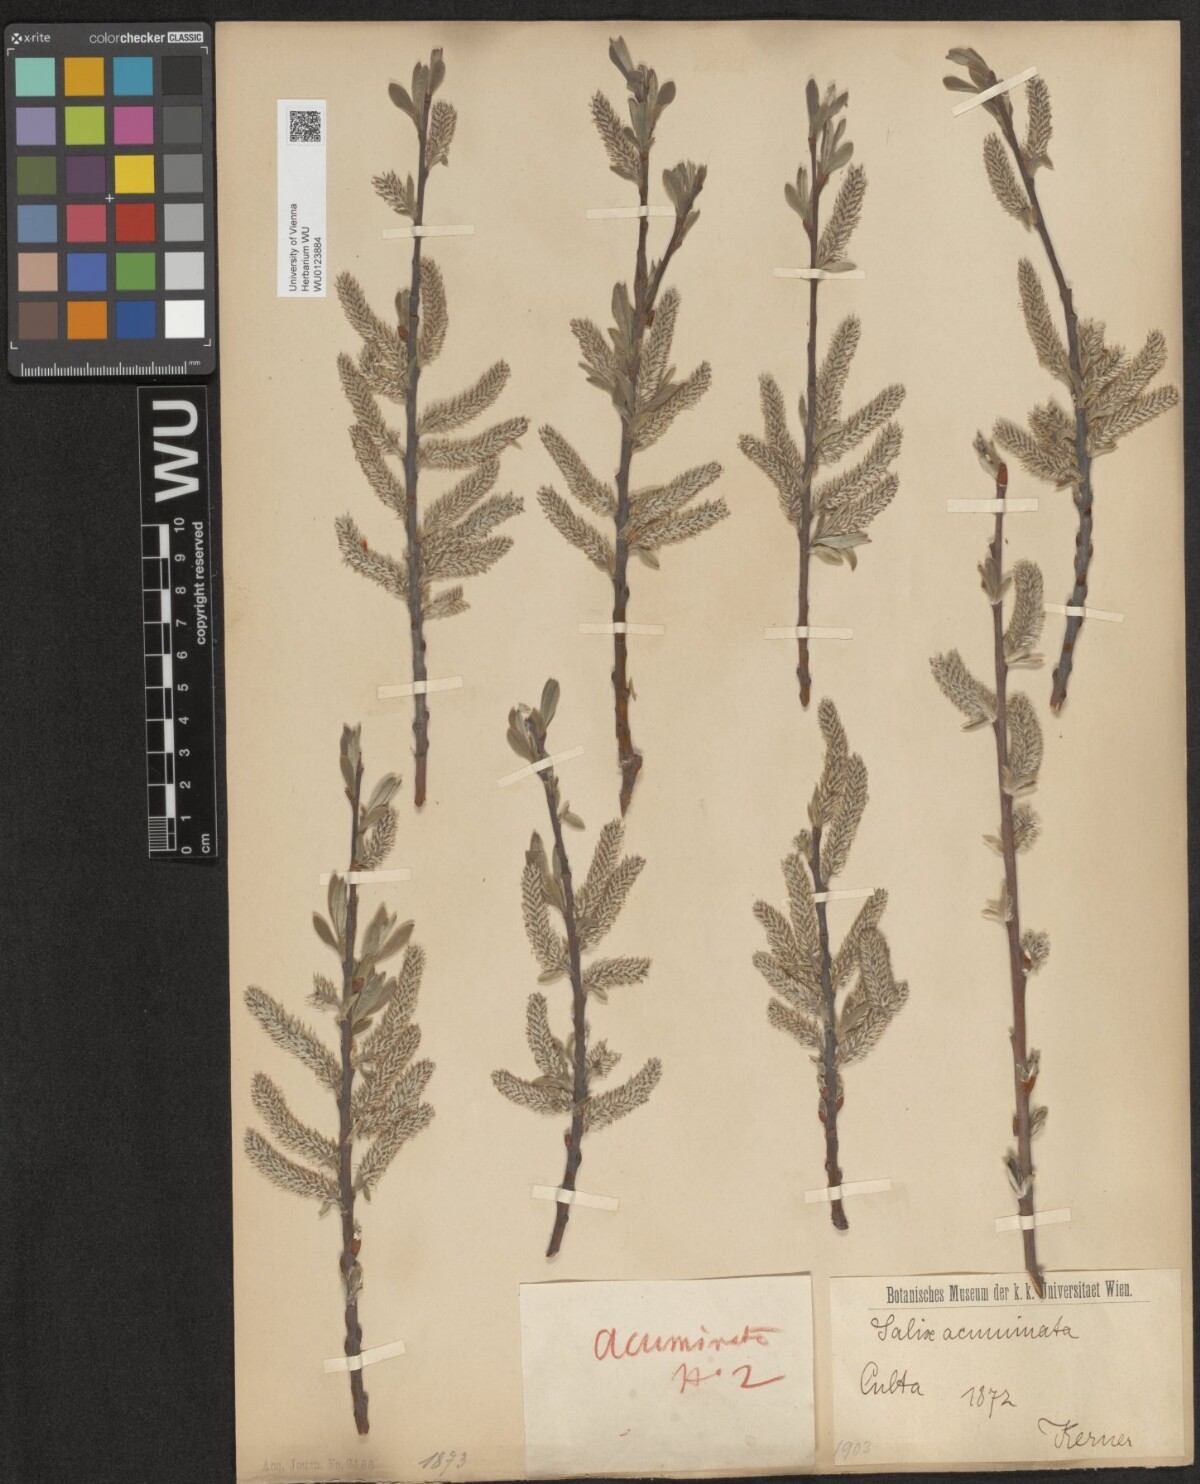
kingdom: Plantae
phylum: Tracheophyta
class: Magnoliopsida
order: Malpighiales
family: Salicaceae
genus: Salix
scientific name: Salix cinerea
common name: Common sallow
